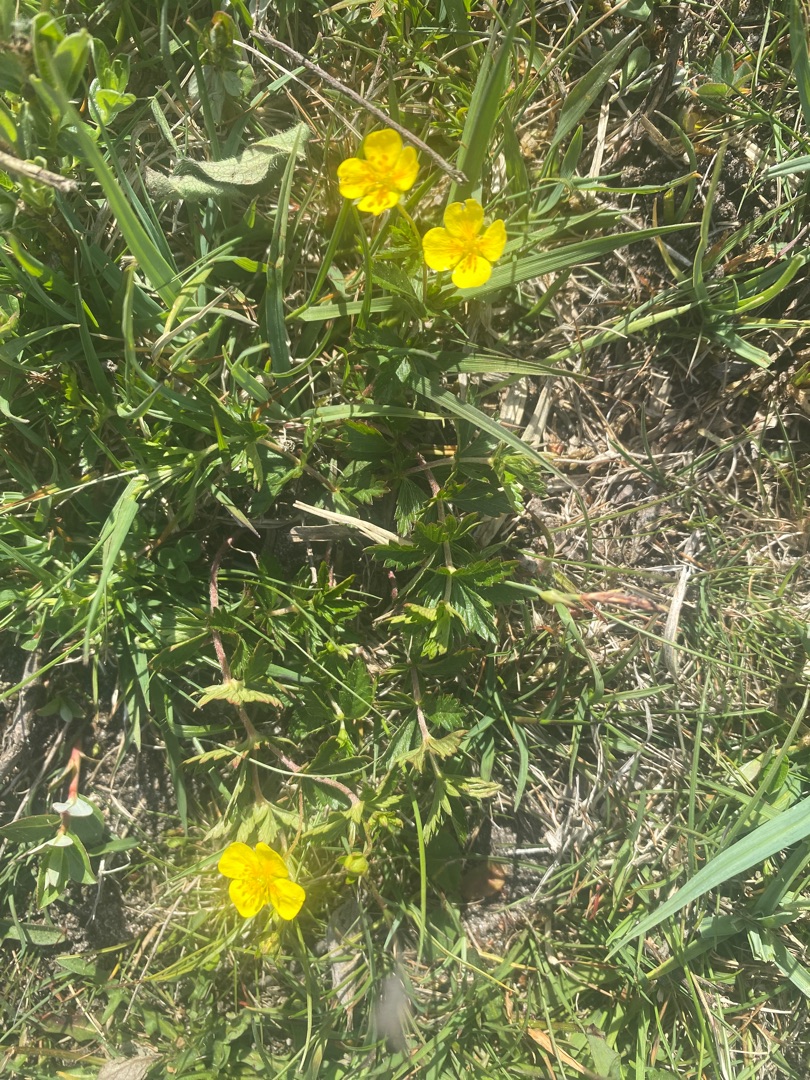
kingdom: Plantae
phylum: Tracheophyta
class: Magnoliopsida
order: Rosales
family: Rosaceae
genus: Potentilla
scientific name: Potentilla erecta
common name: Tormentil
